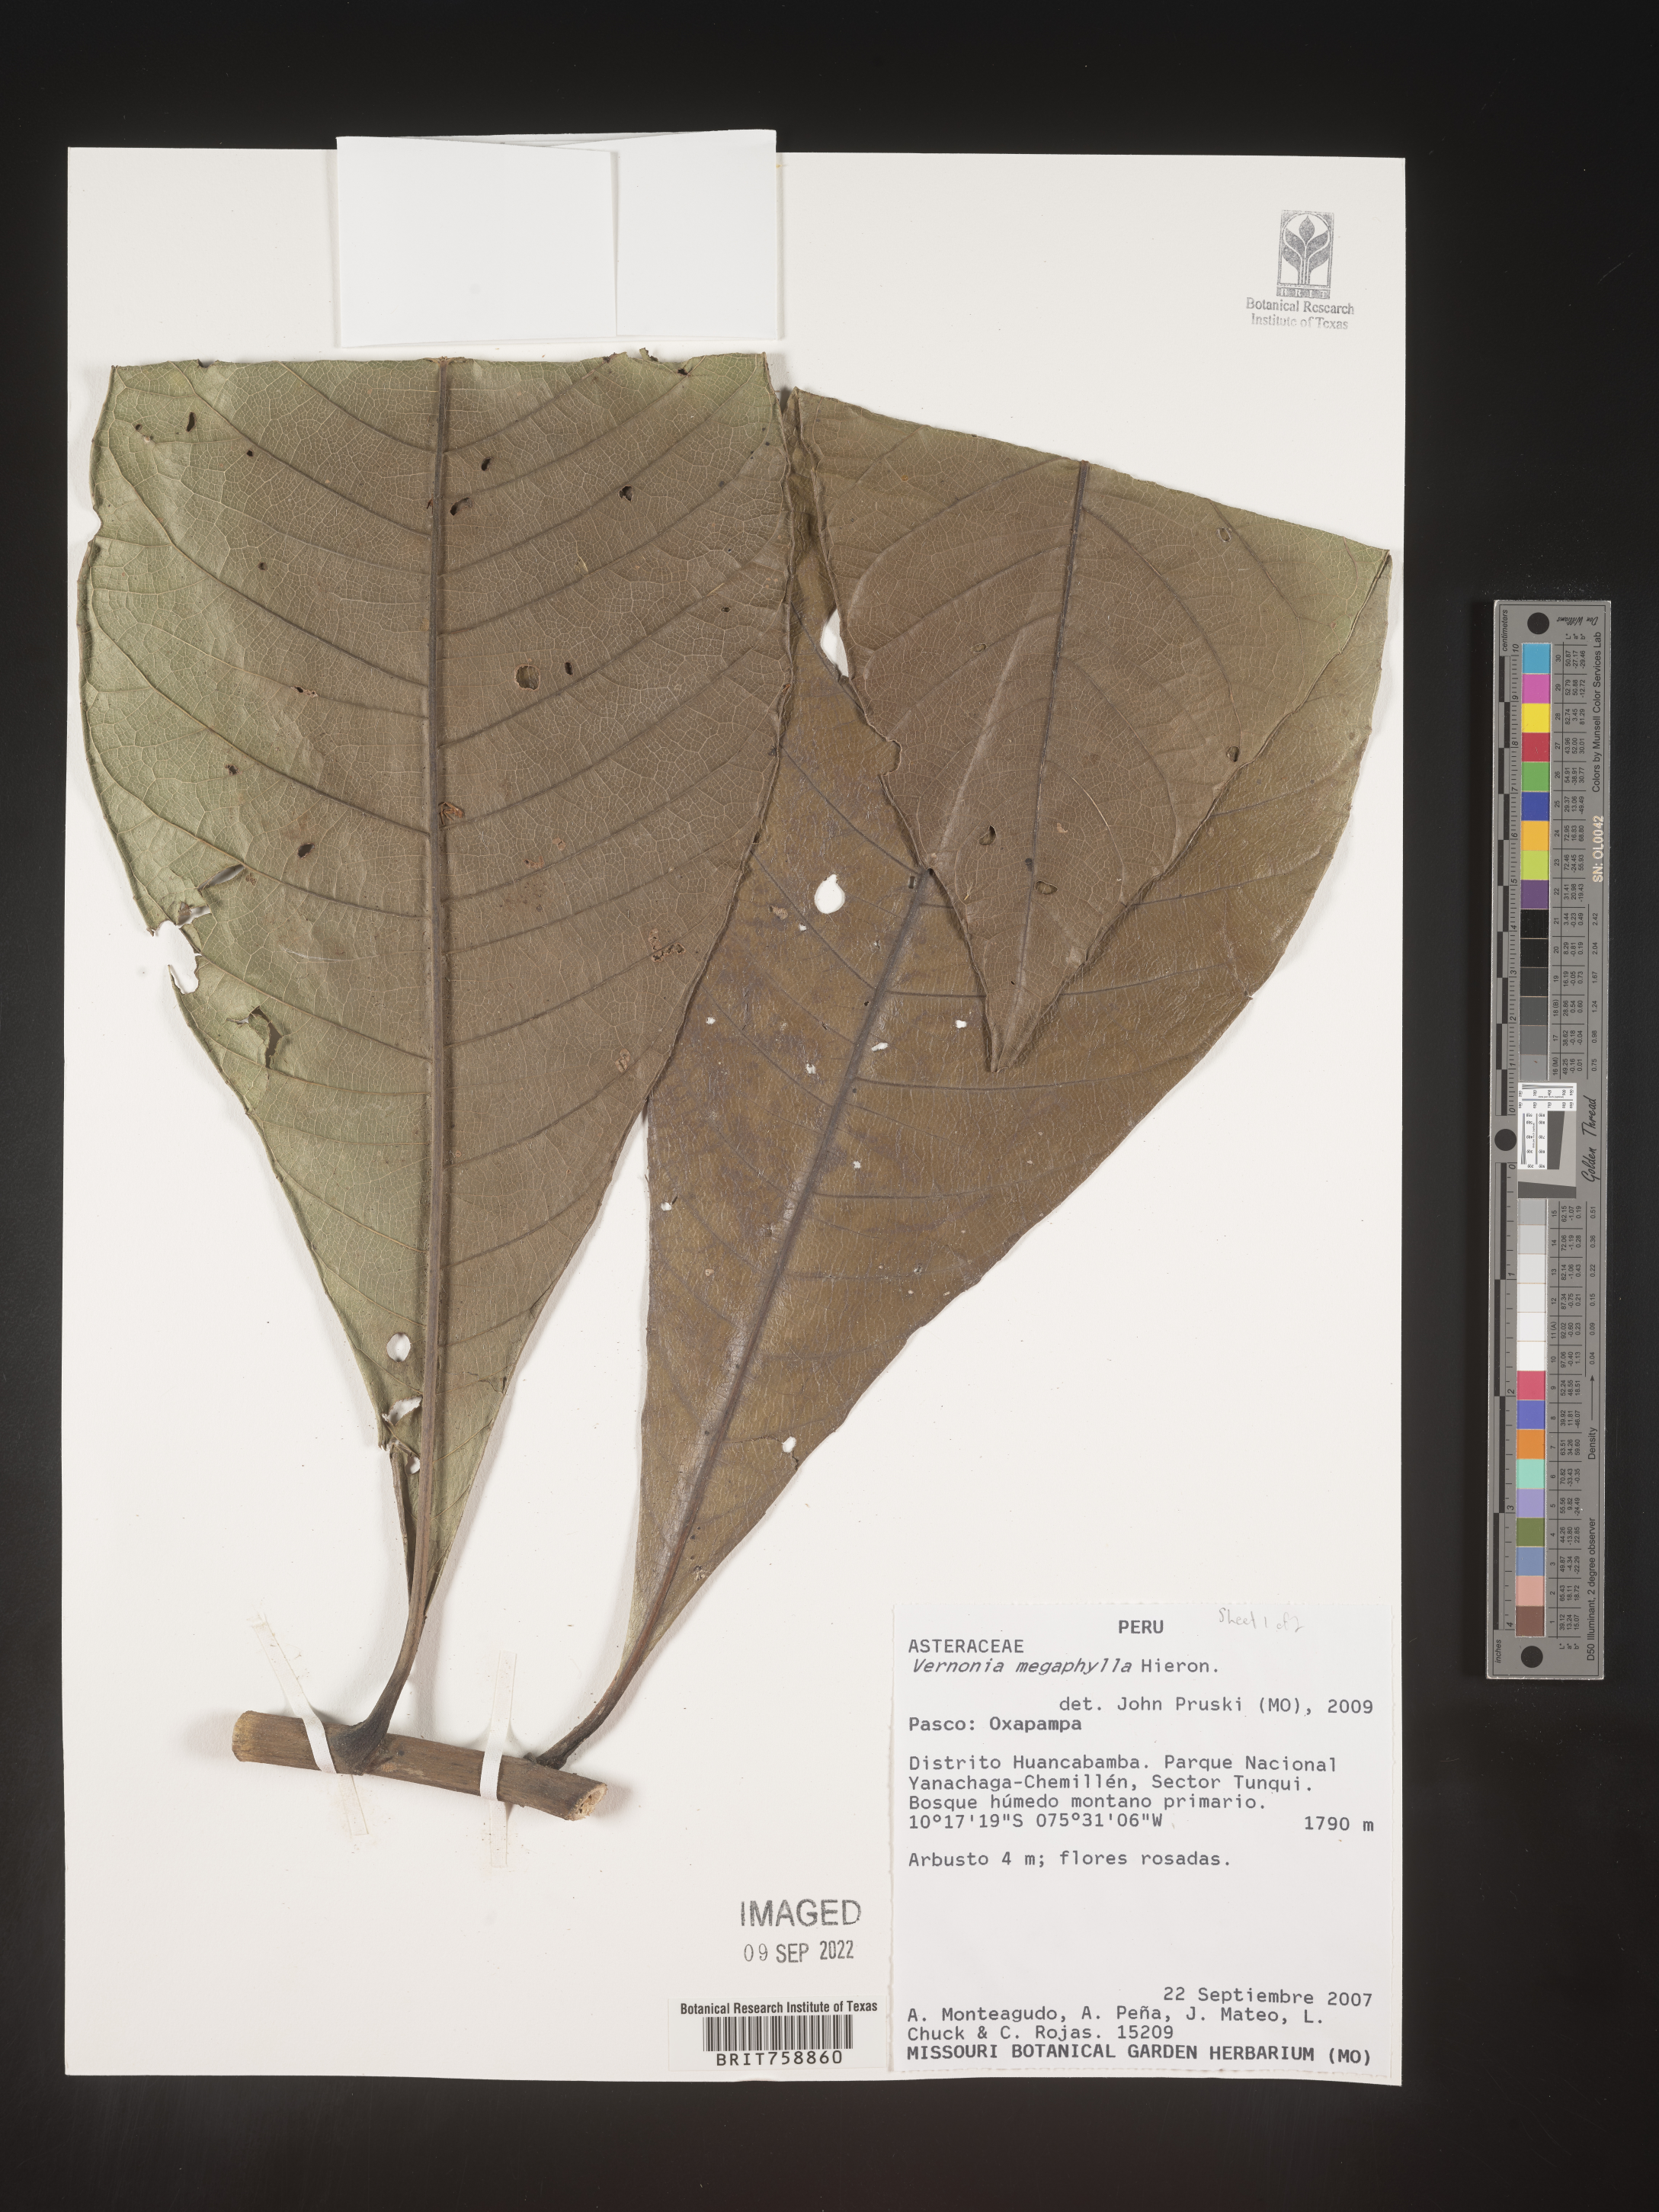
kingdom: Plantae
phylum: Tracheophyta
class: Magnoliopsida
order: Asterales
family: Asteraceae
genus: Vernonia
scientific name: Vernonia
